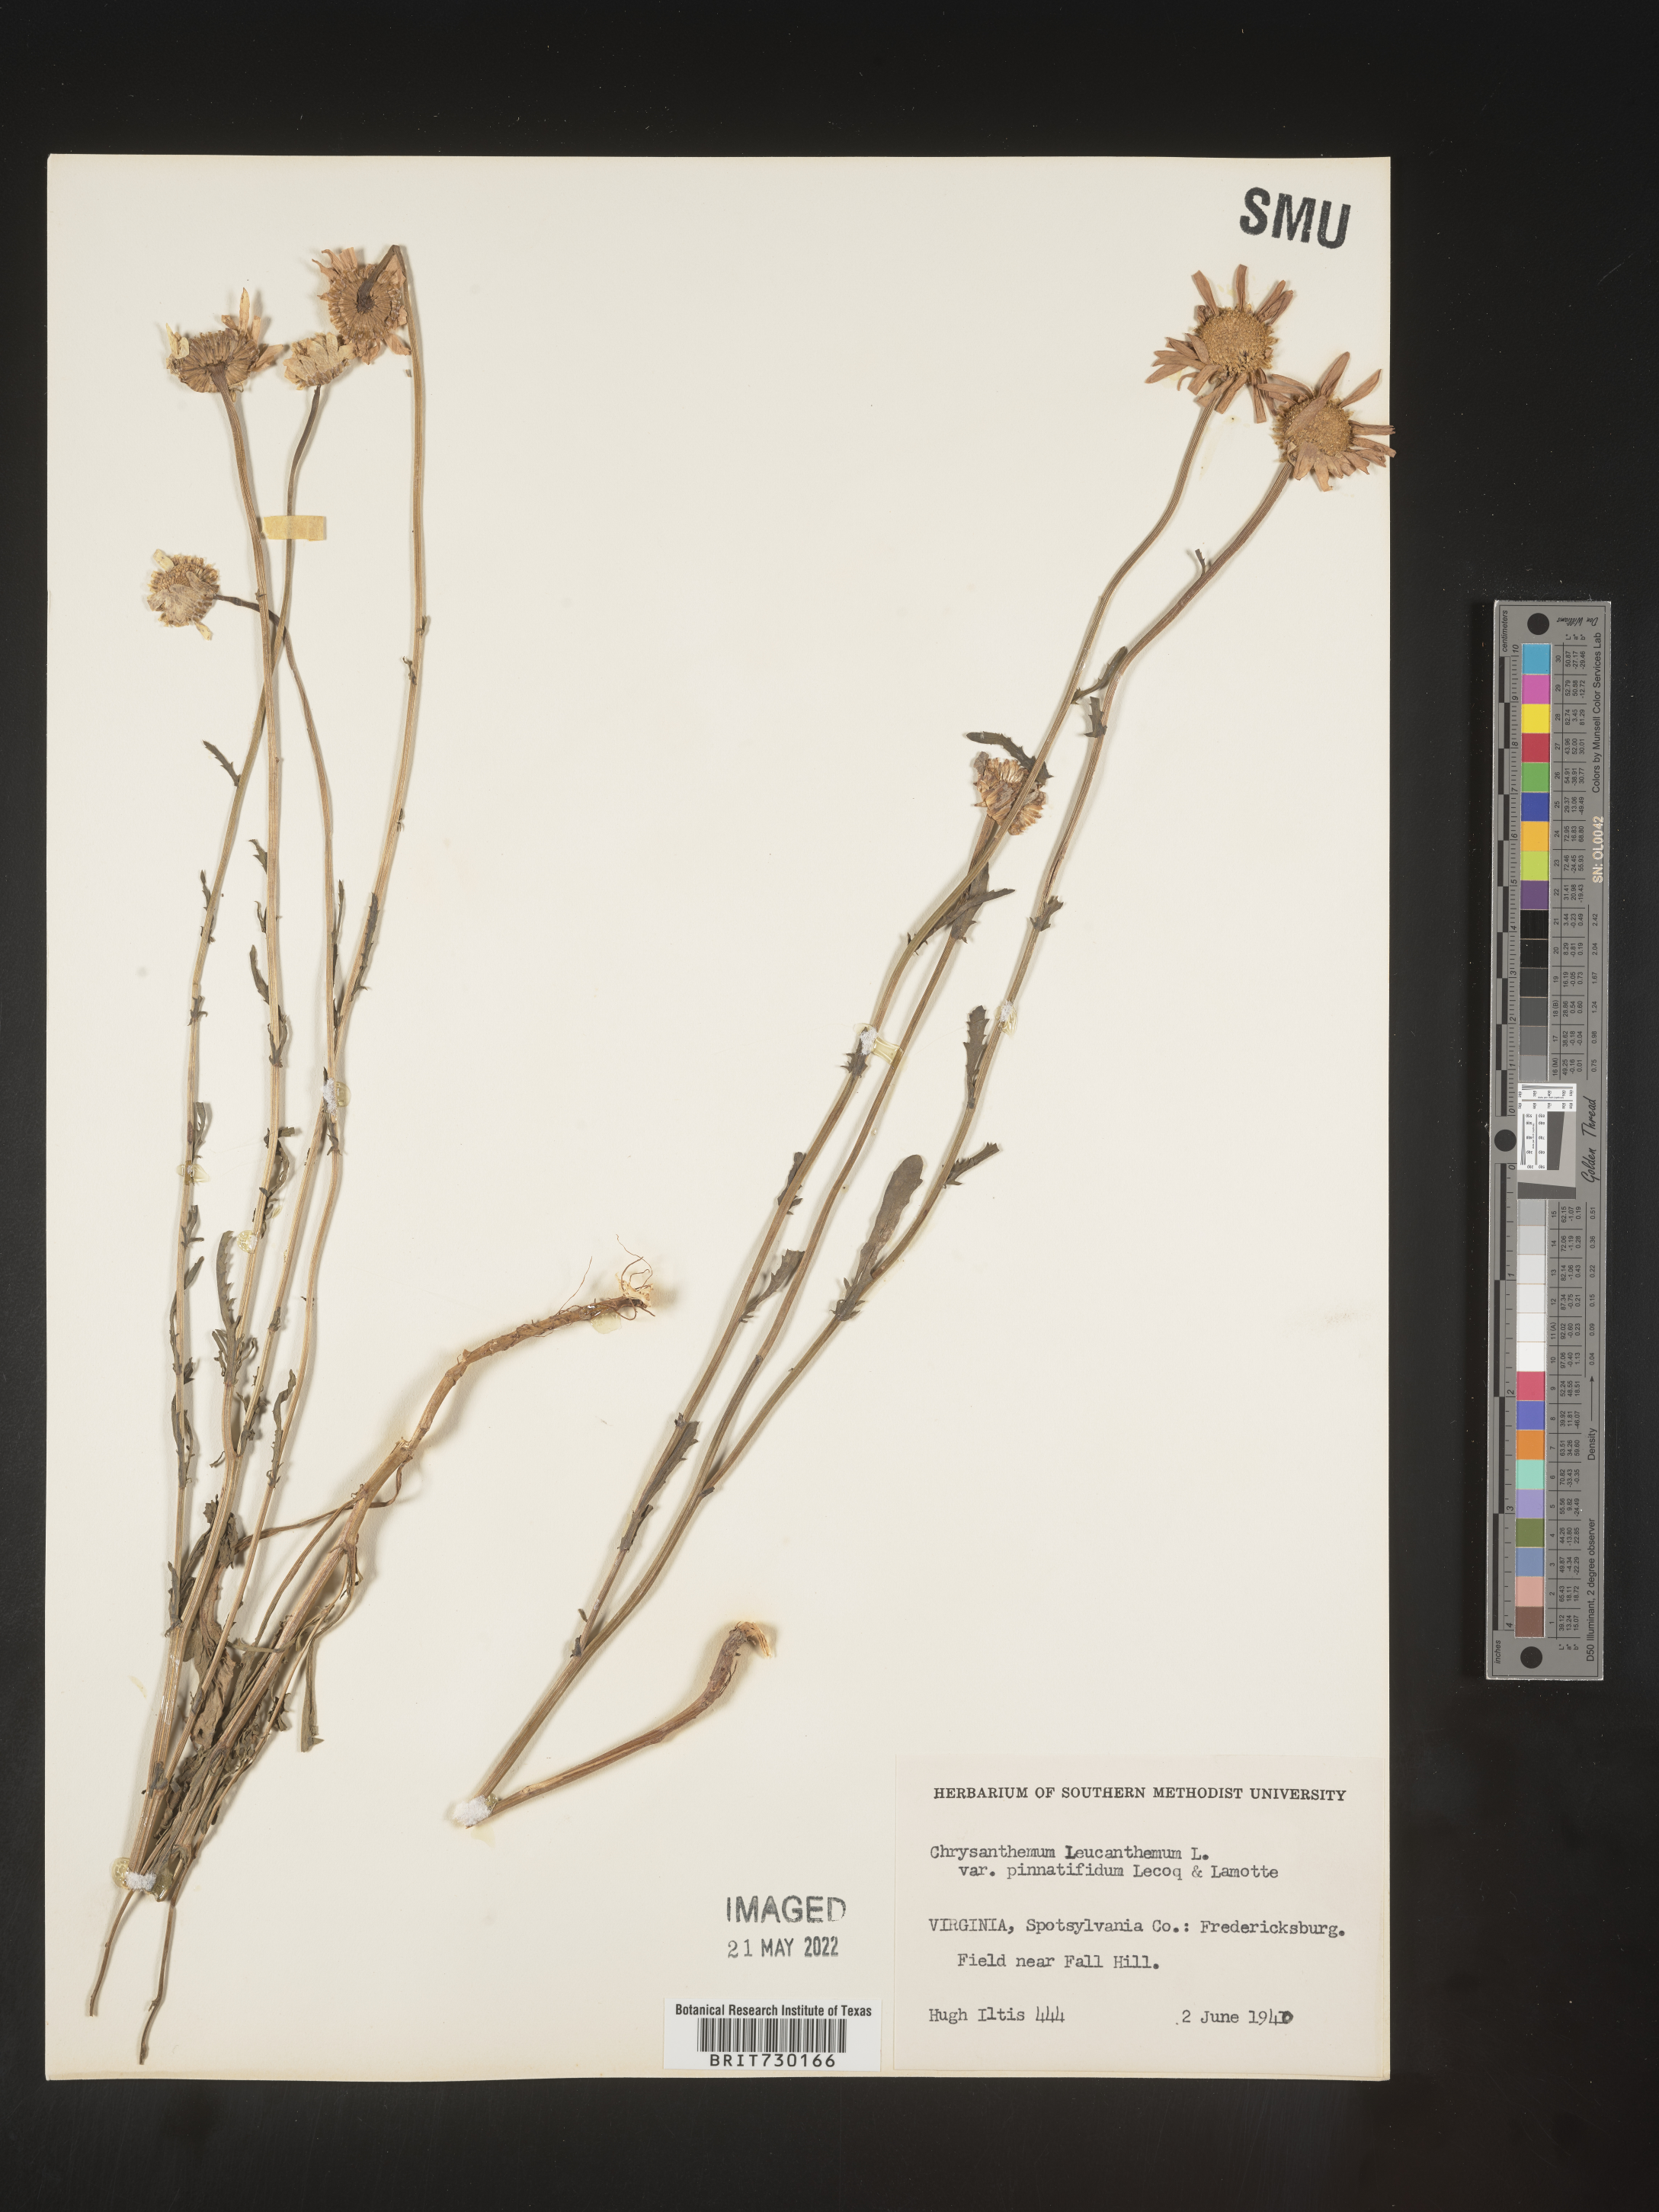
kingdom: Plantae
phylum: Tracheophyta
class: Magnoliopsida
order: Asterales
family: Asteraceae
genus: Leucanthemum
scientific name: Leucanthemum vulgare
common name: Oxeye daisy
